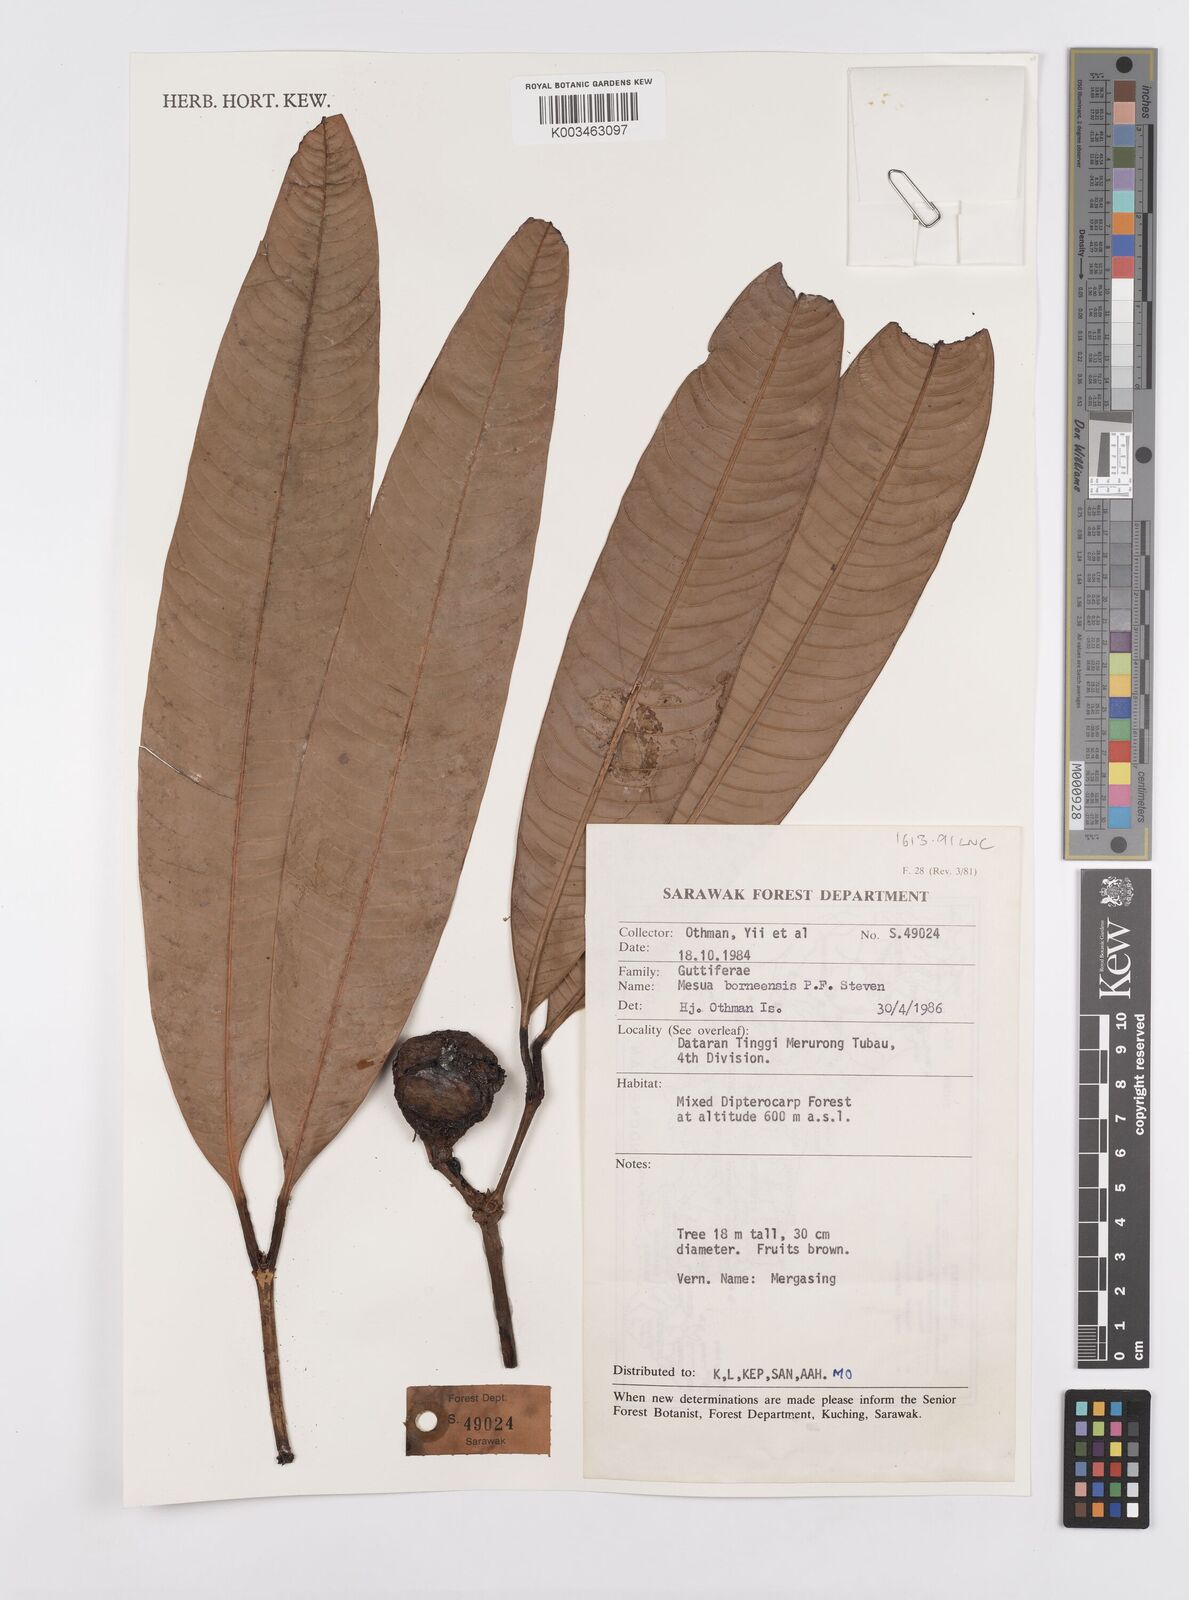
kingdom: Plantae
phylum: Tracheophyta
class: Magnoliopsida
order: Malpighiales
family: Calophyllaceae
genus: Kayea
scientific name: Kayea borneensis
